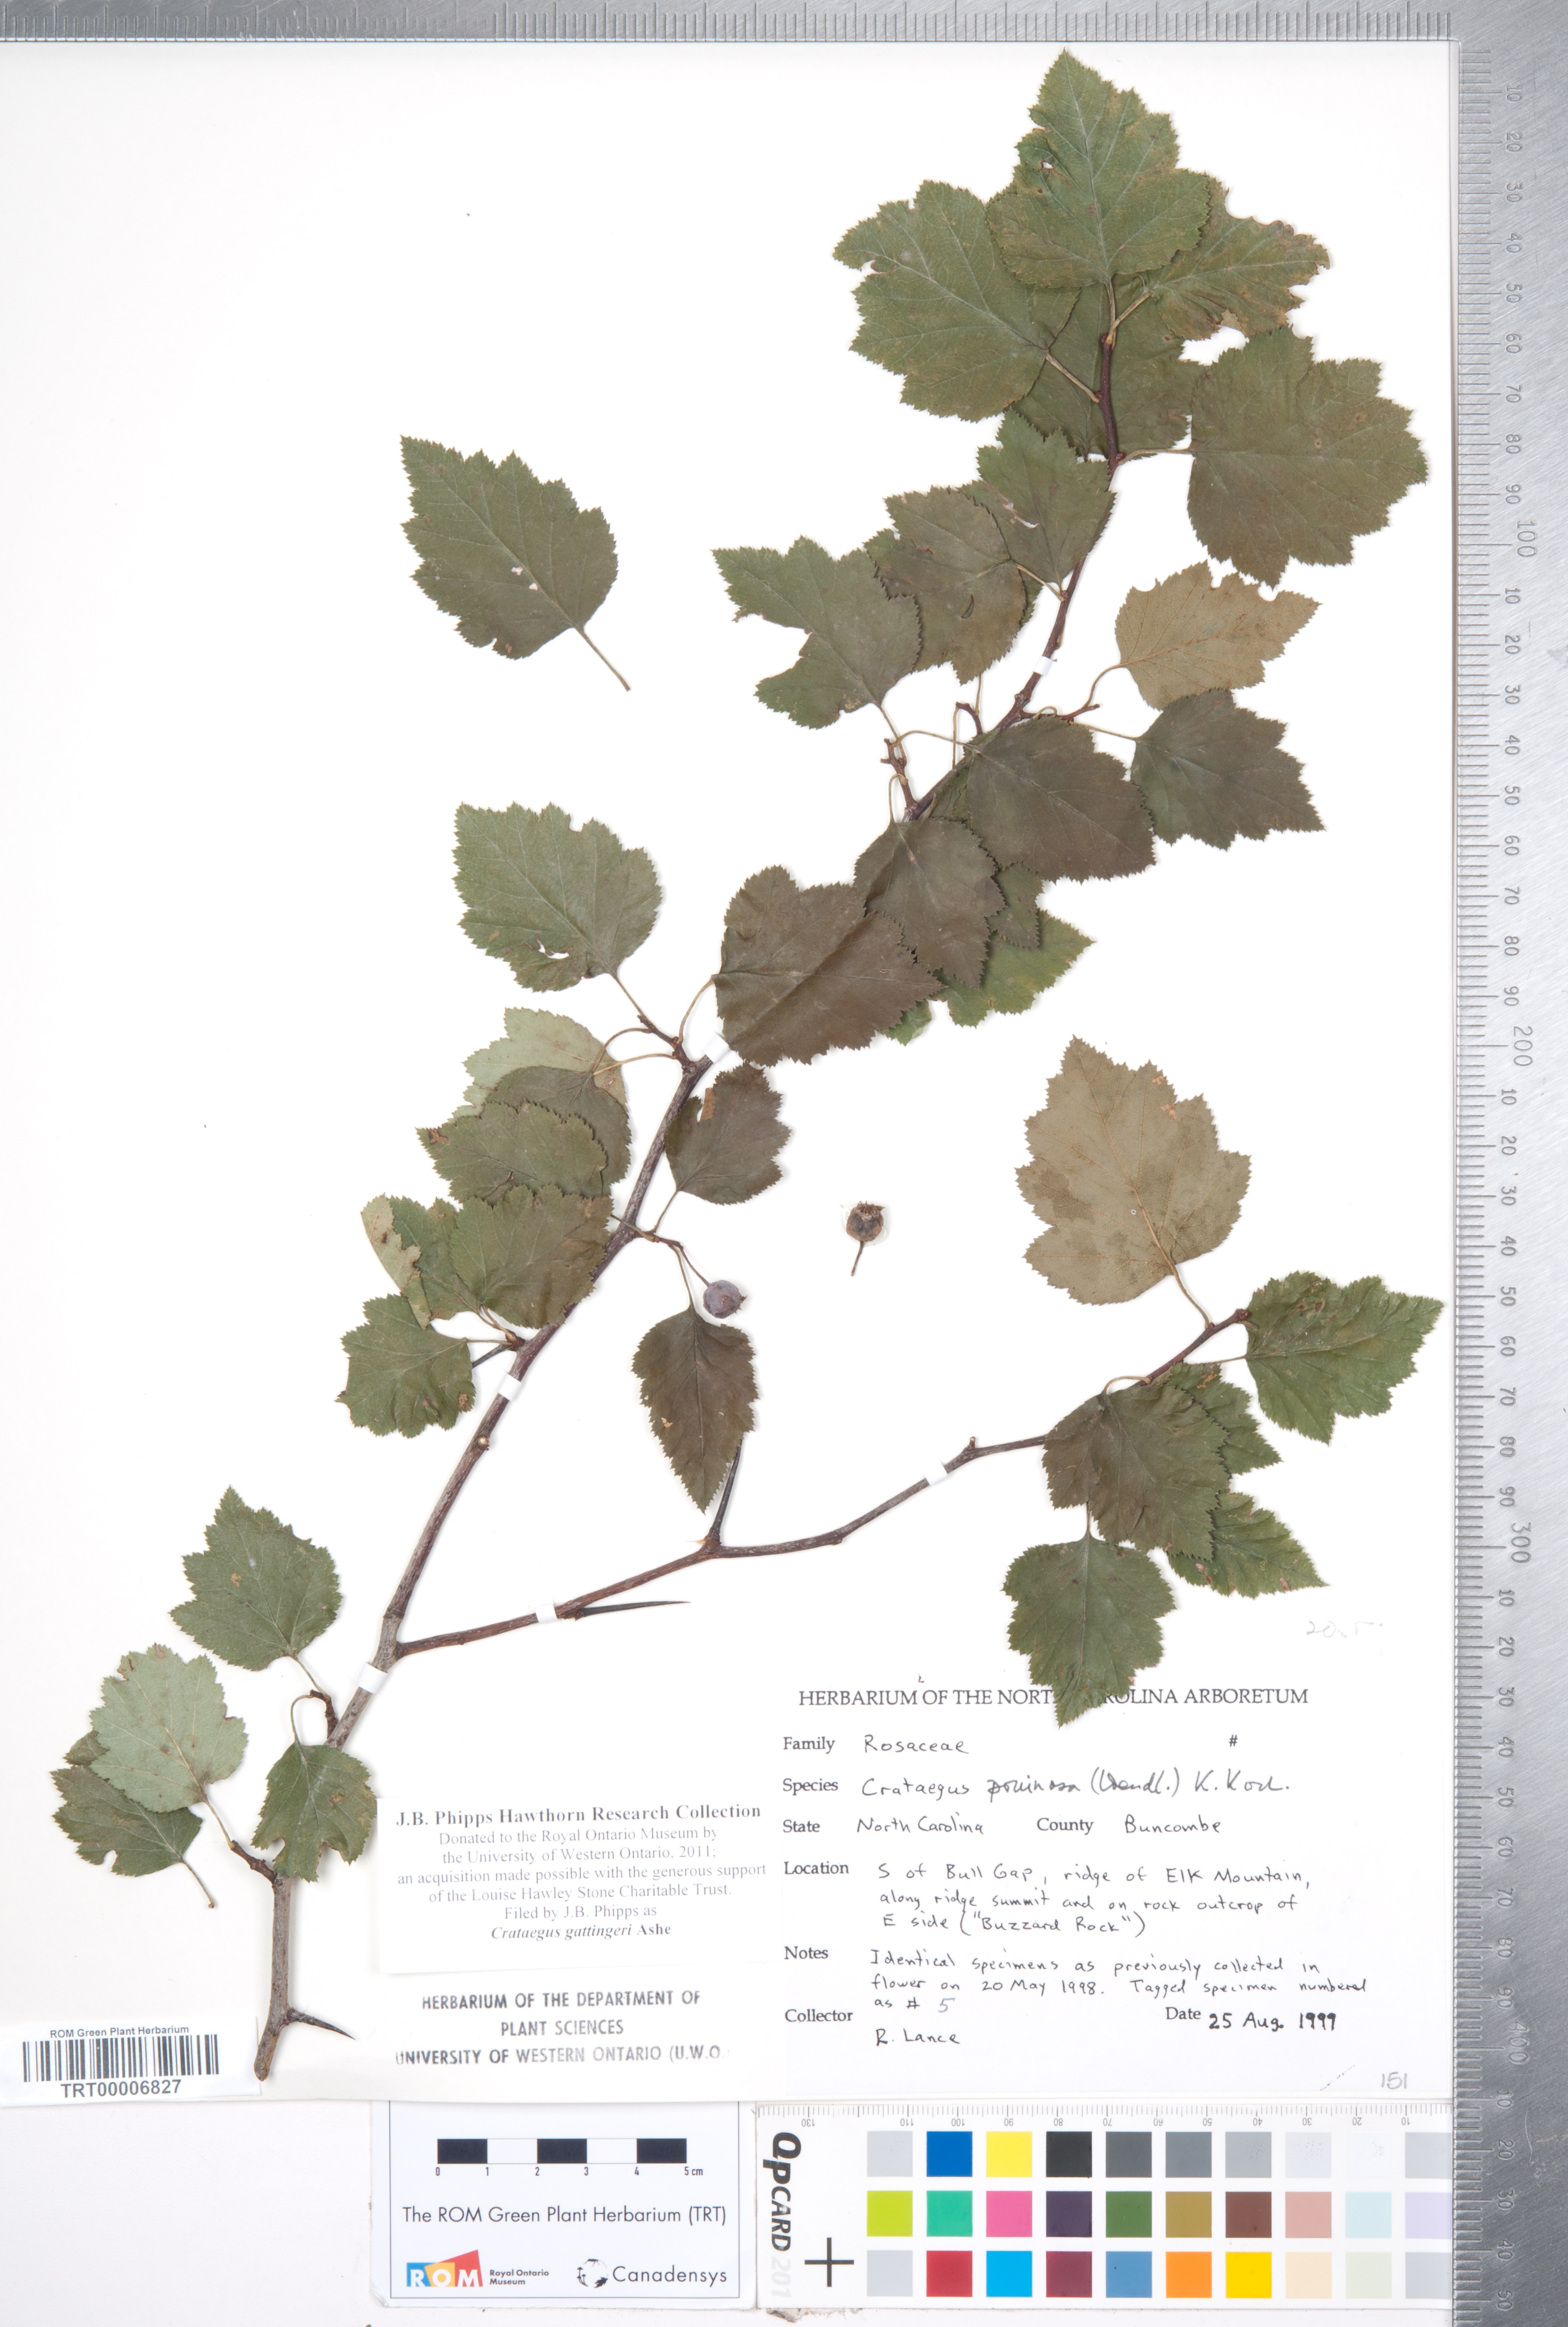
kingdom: Plantae
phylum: Tracheophyta
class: Magnoliopsida
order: Rosales
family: Rosaceae
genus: Crataegus
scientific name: Crataegus gattingeri
